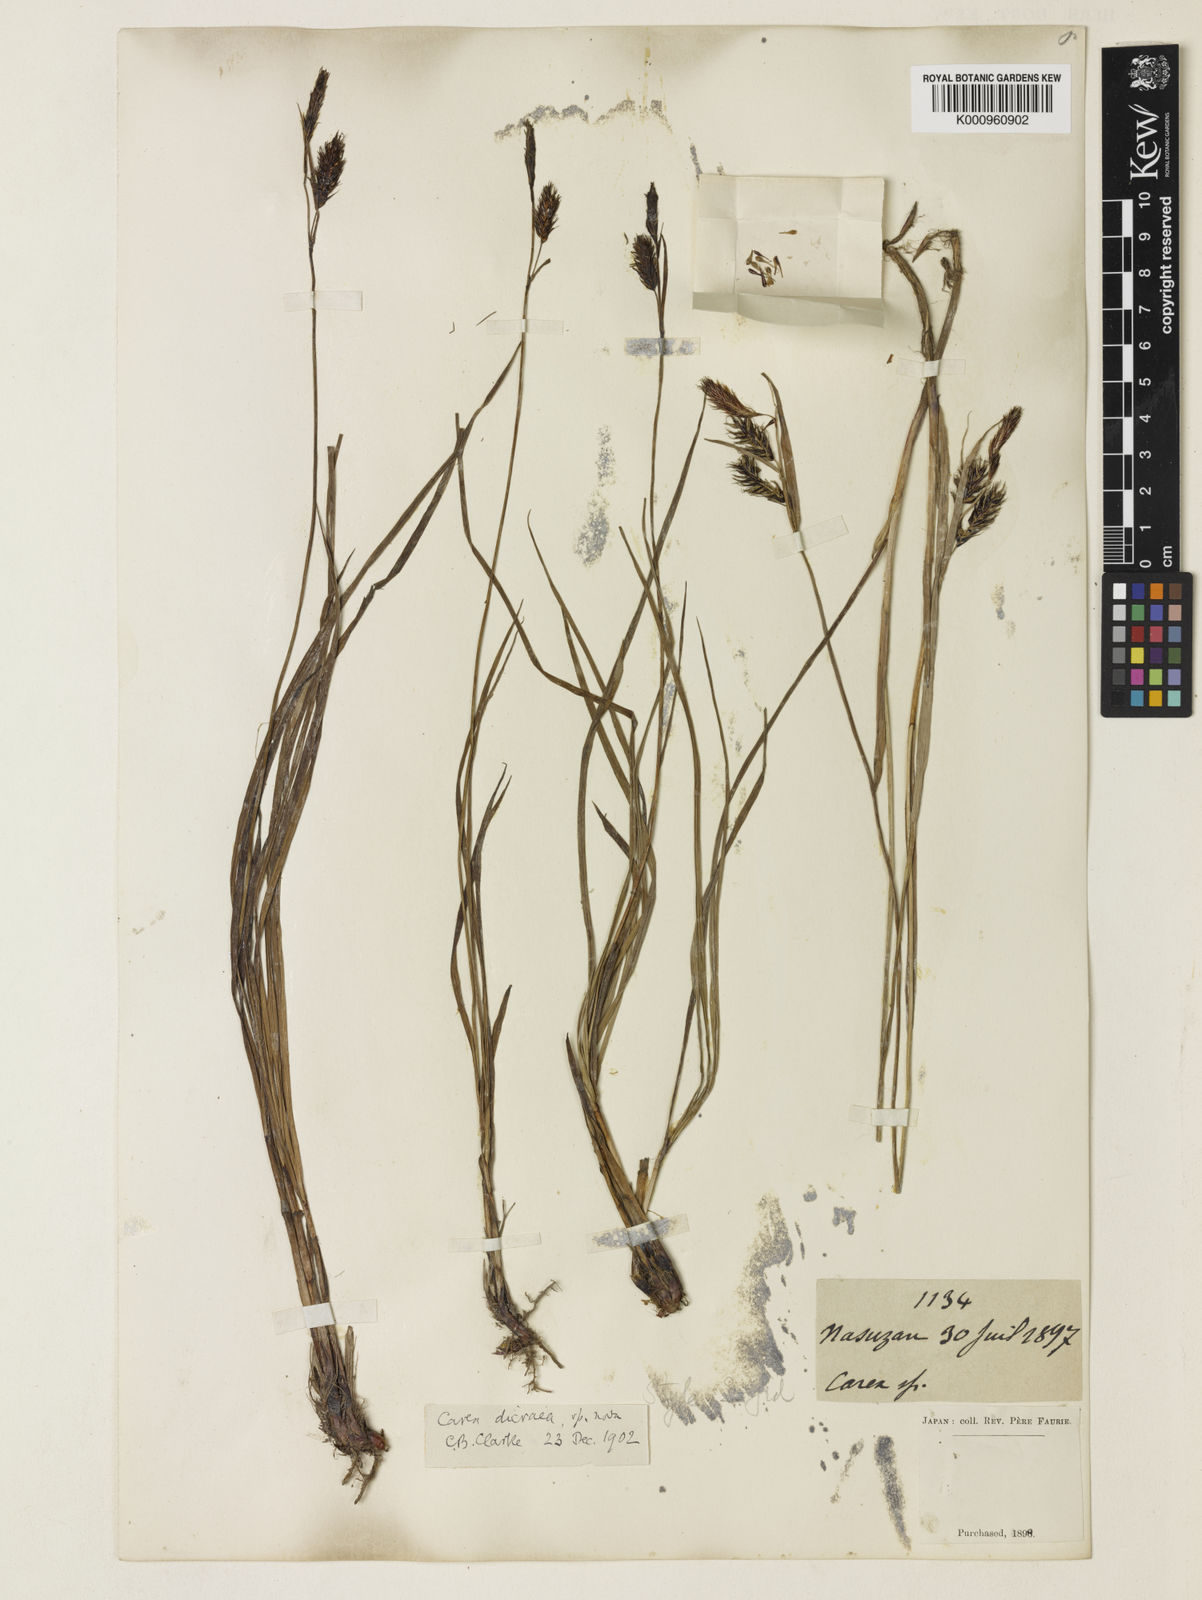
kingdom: Plantae
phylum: Tracheophyta
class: Liliopsida
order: Poales
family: Cyperaceae
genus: Carex
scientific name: Carex doenitzii
